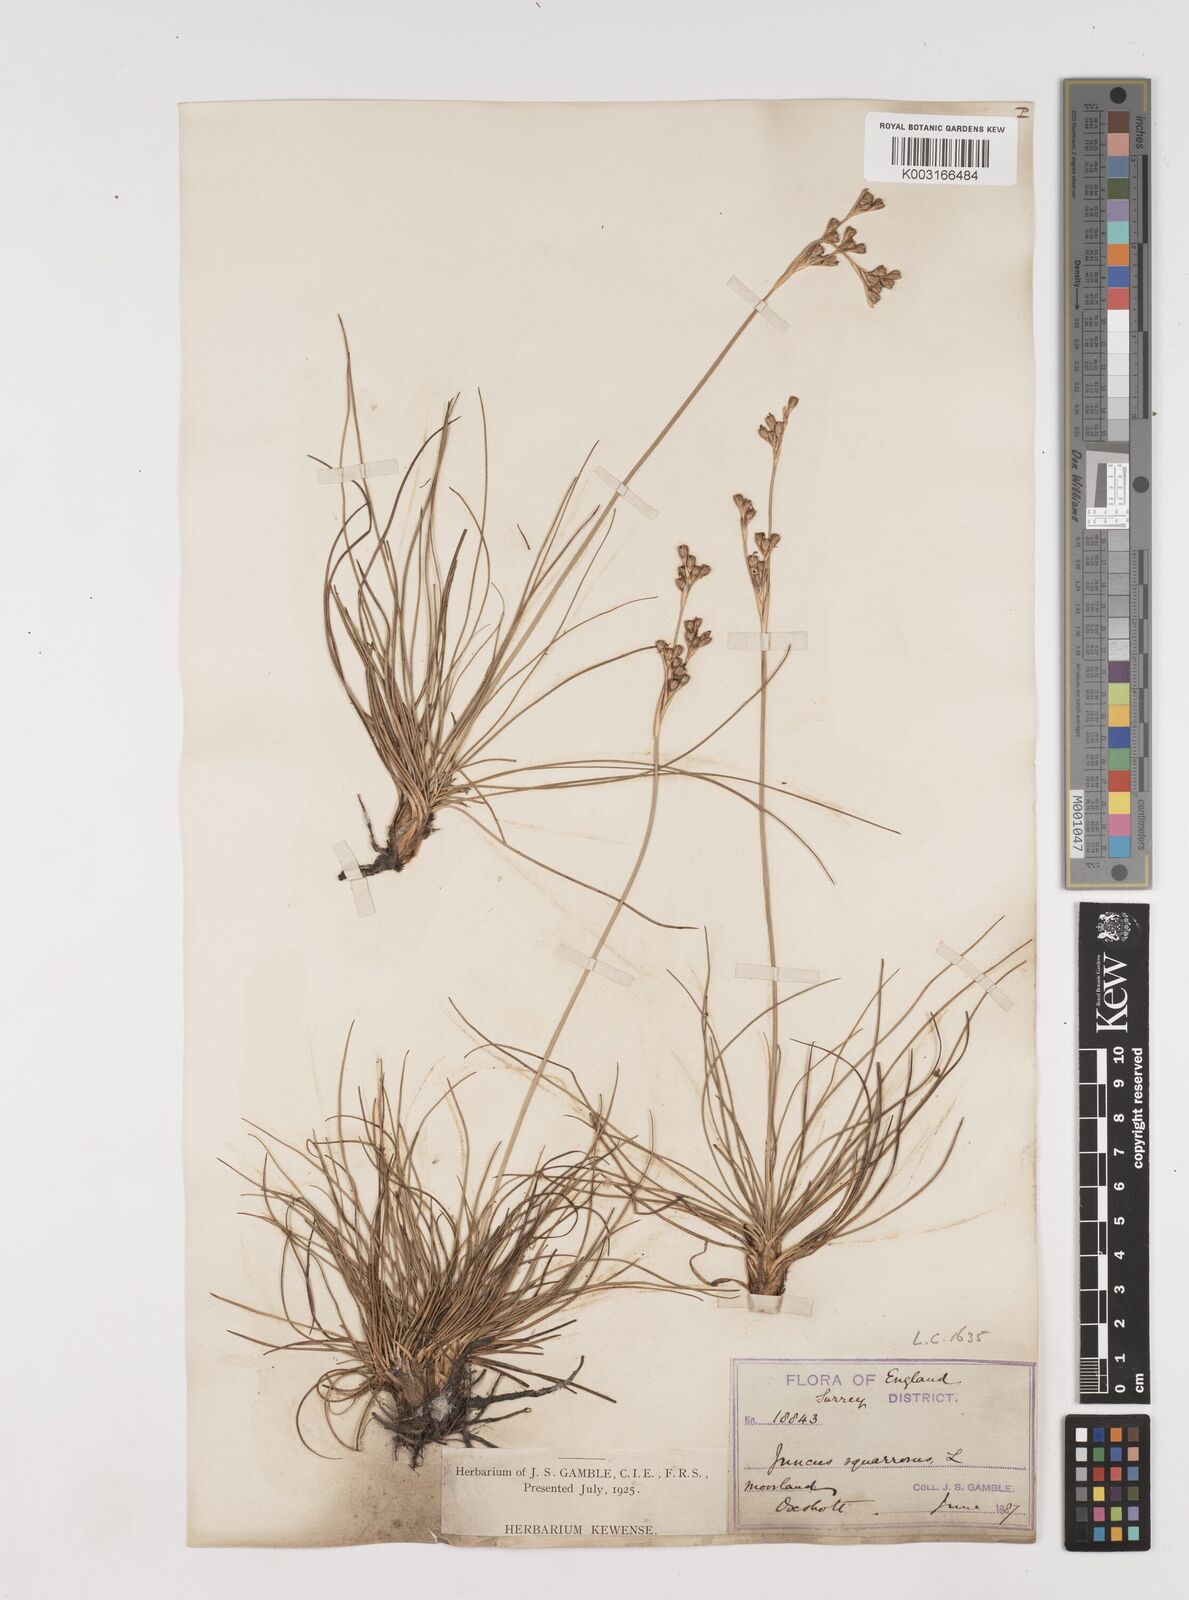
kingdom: Plantae
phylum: Tracheophyta
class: Liliopsida
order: Poales
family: Juncaceae
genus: Juncus
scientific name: Juncus squarrosus
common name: Heath rush
